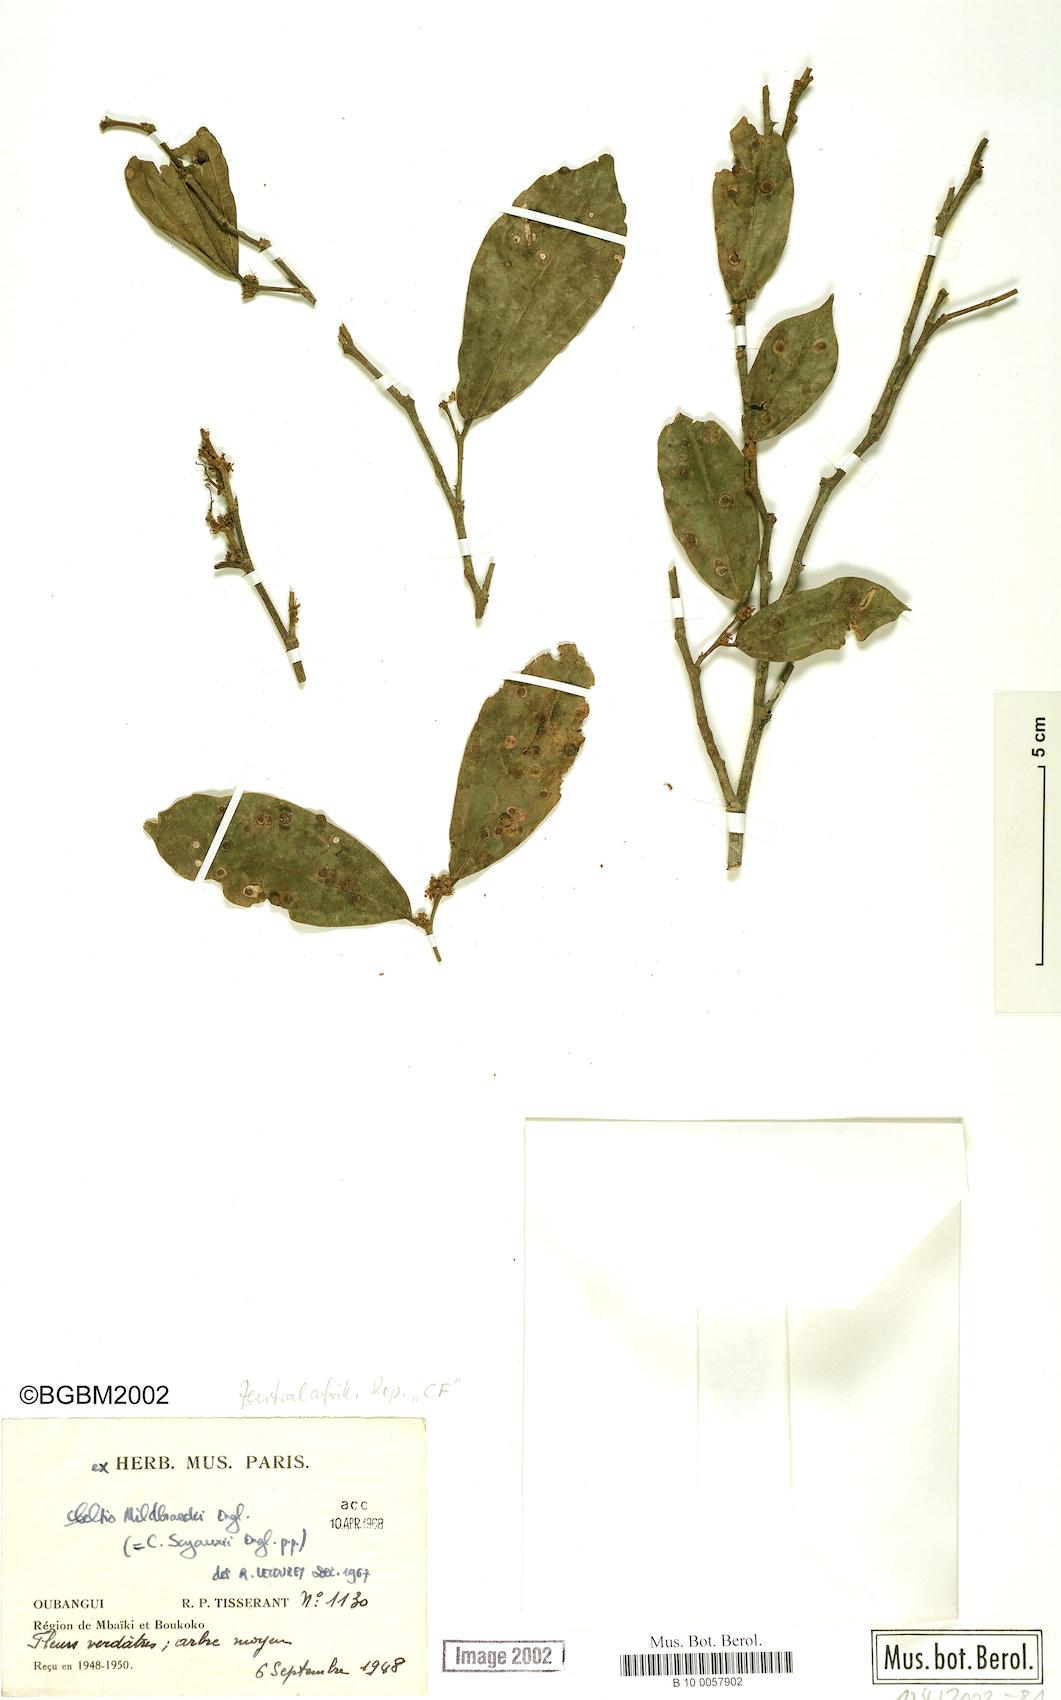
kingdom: Plantae
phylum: Tracheophyta
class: Magnoliopsida
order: Rosales
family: Cannabaceae
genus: Celtis
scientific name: Celtis mildbraedii
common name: Red-fruited stinkwood
